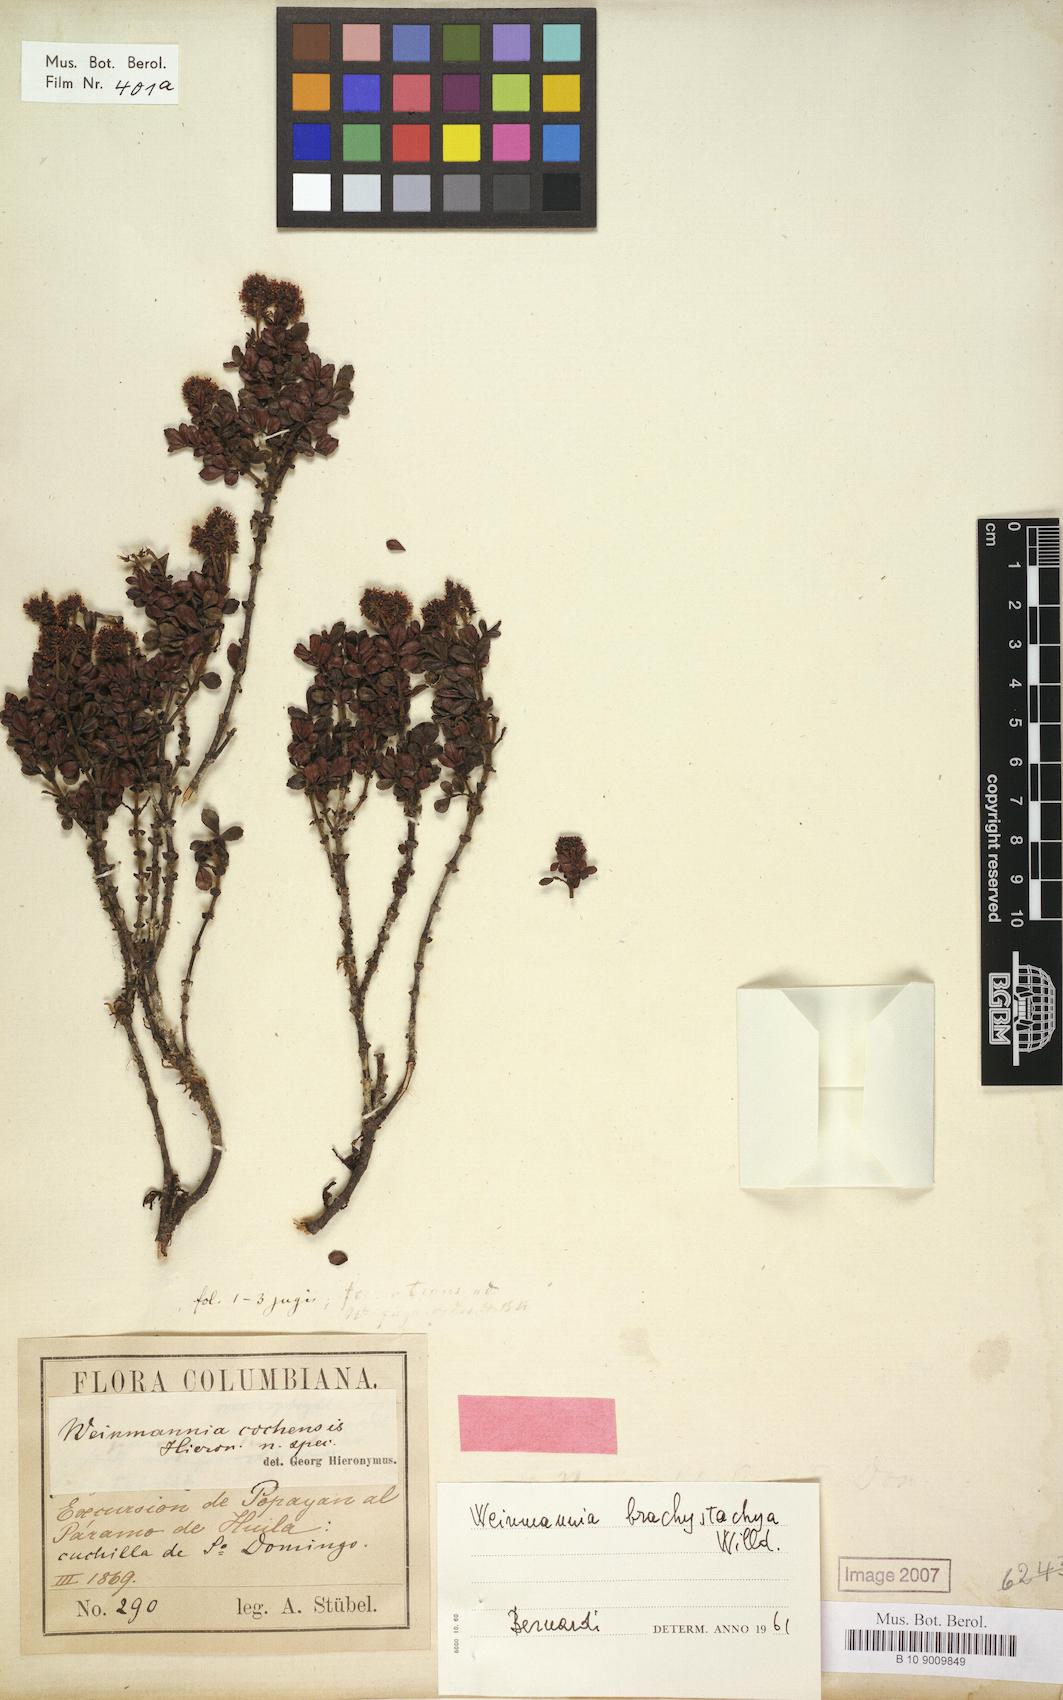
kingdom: Plantae
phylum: Tracheophyta
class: Magnoliopsida
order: Oxalidales
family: Cunoniaceae
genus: Weinmannia
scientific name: Weinmannia cochensis
